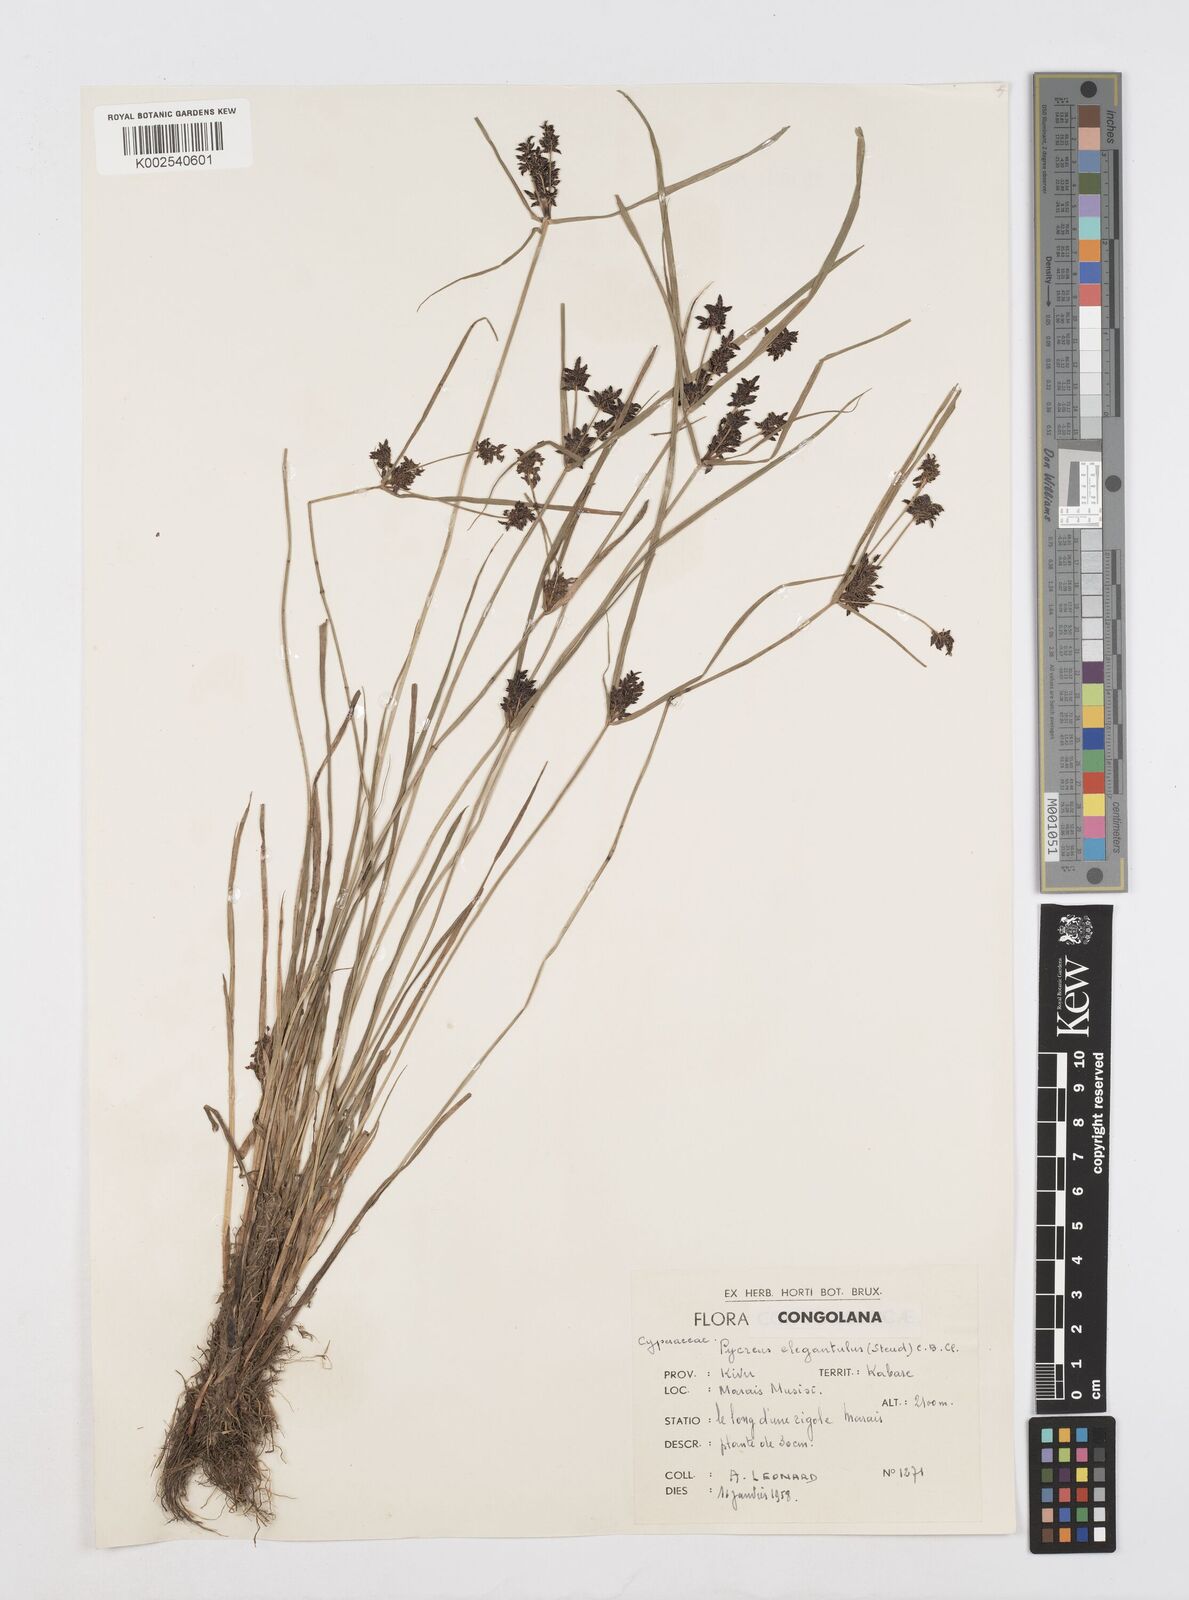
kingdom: Plantae
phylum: Tracheophyta
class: Liliopsida
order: Poales
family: Cyperaceae
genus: Cyperus
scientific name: Cyperus elegantulus
